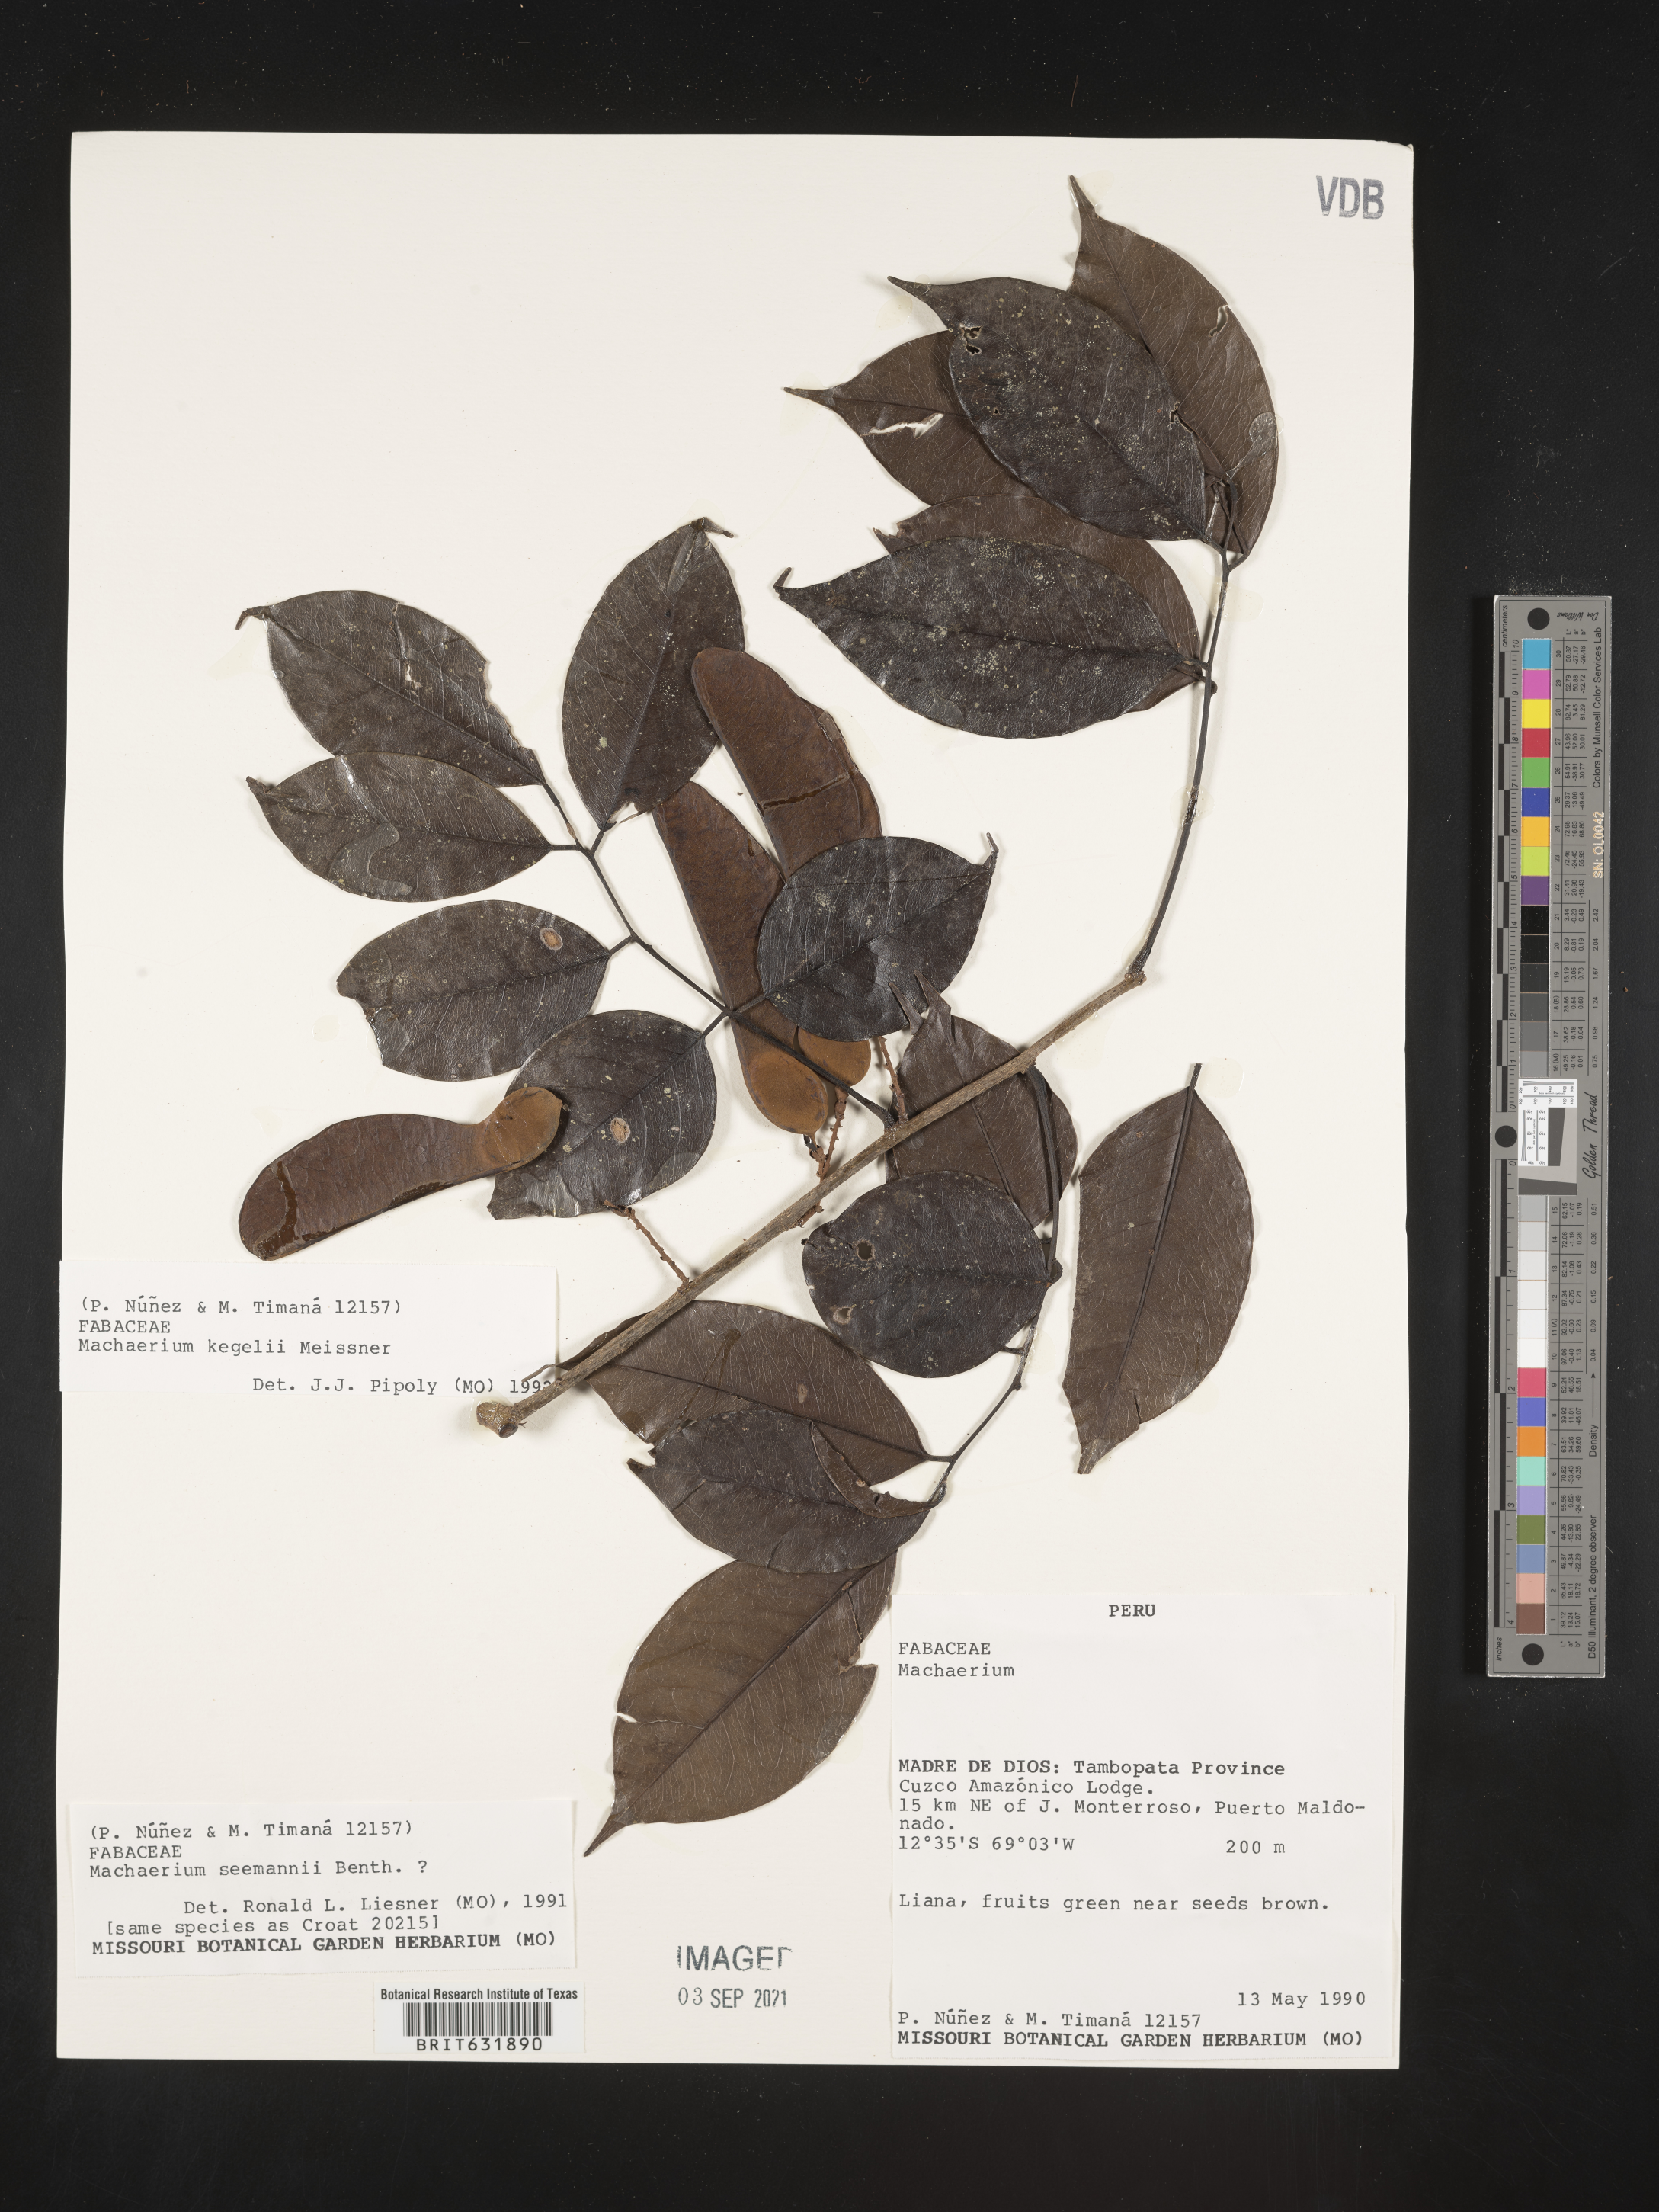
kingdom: Plantae
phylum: Tracheophyta
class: Magnoliopsida
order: Fabales
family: Fabaceae
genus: Machaerium
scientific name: Machaerium
